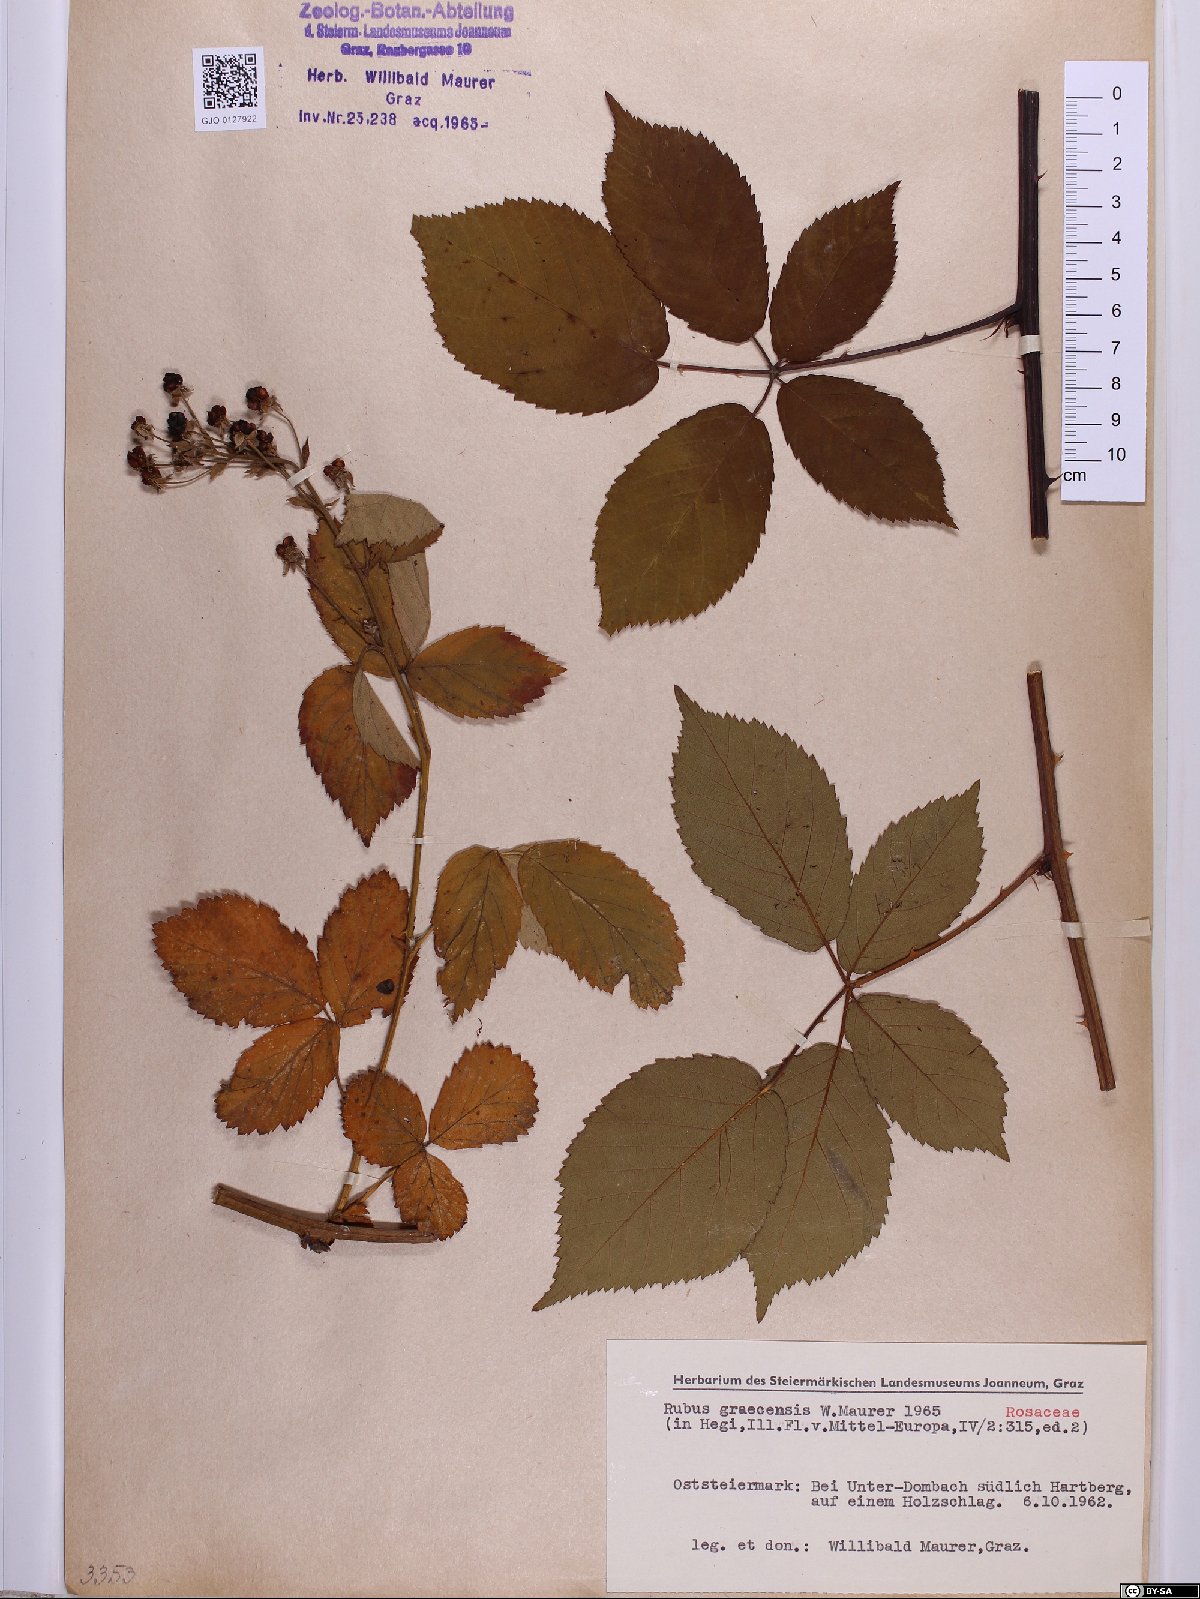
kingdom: Plantae
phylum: Tracheophyta
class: Magnoliopsida
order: Rosales
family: Rosaceae
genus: Rubus
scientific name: Rubus graecensis
